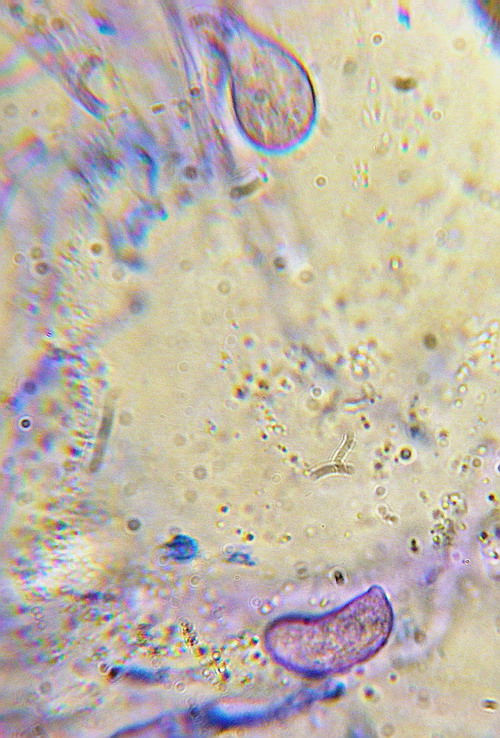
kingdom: Fungi
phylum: Basidiomycota
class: Agaricomycetes
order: Auriculariales
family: Auriculariaceae
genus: Exidia
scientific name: Exidia thuretiana
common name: hvidlig bævretop
